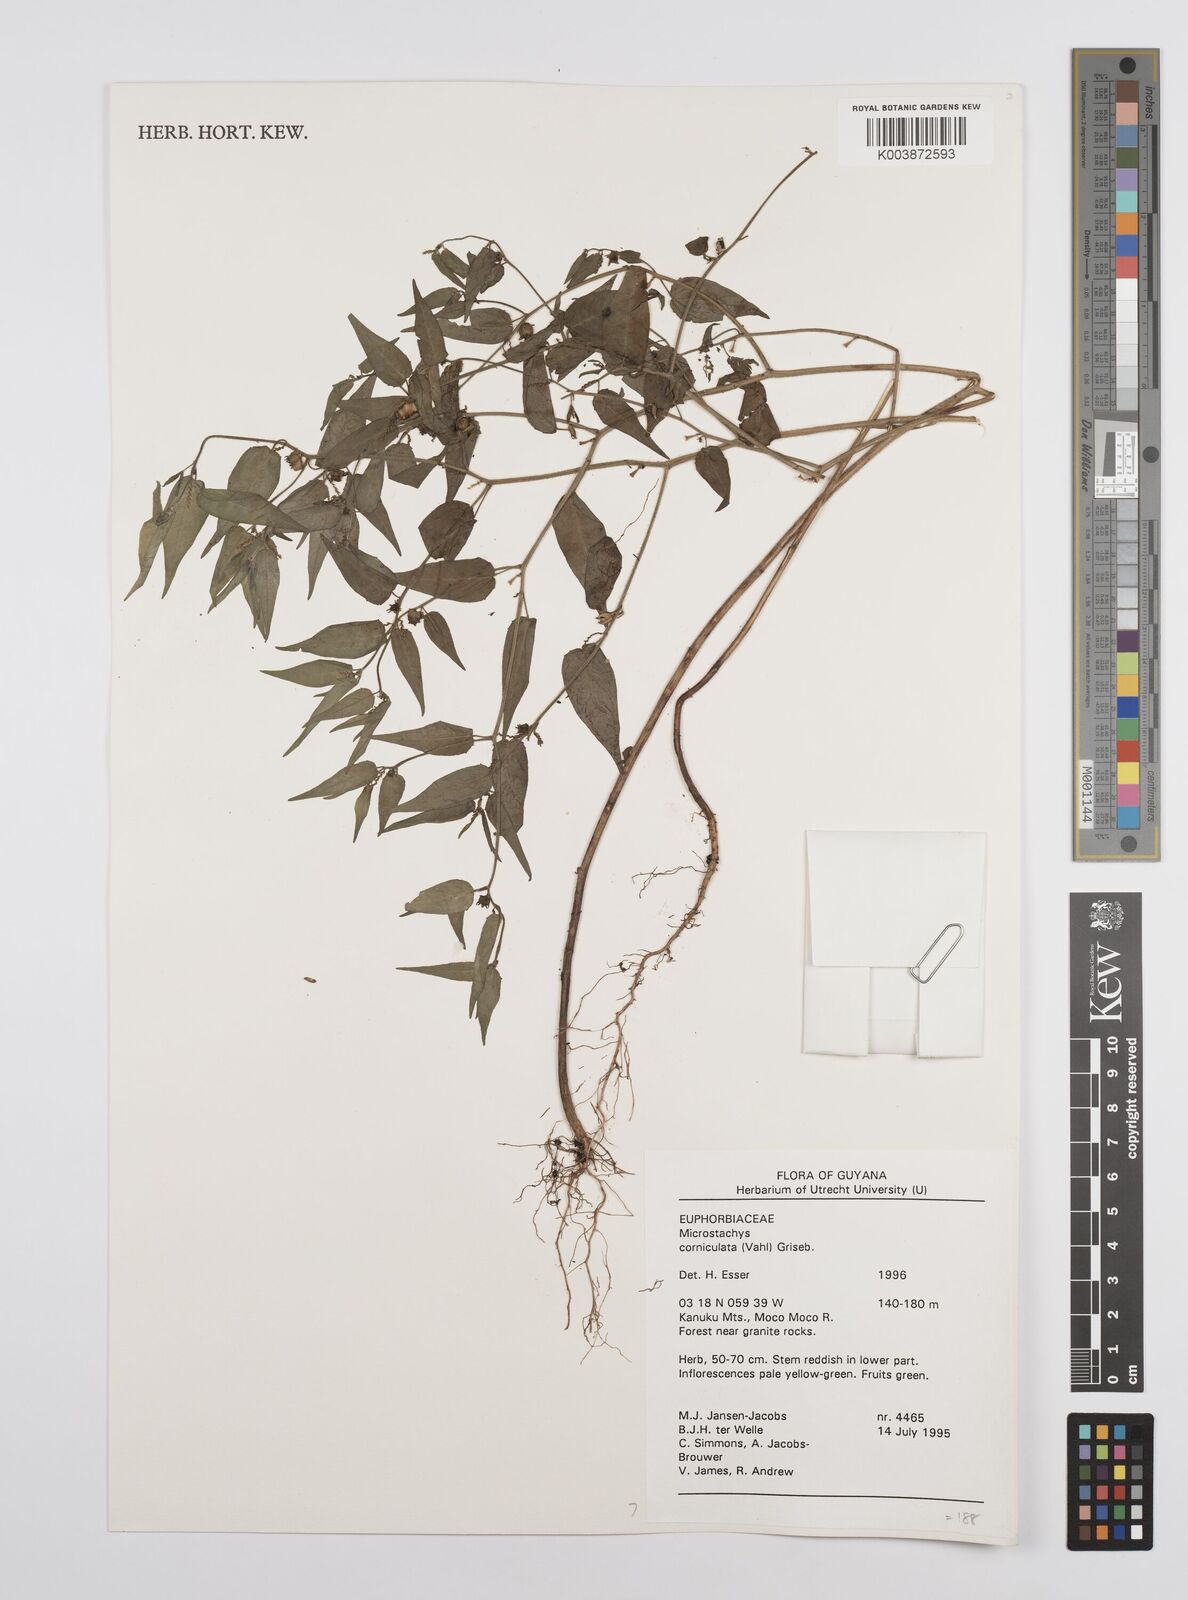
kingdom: Plantae
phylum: Tracheophyta
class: Magnoliopsida
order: Malpighiales
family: Euphorbiaceae
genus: Microstachys
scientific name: Microstachys corniculata
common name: Hato tejas
